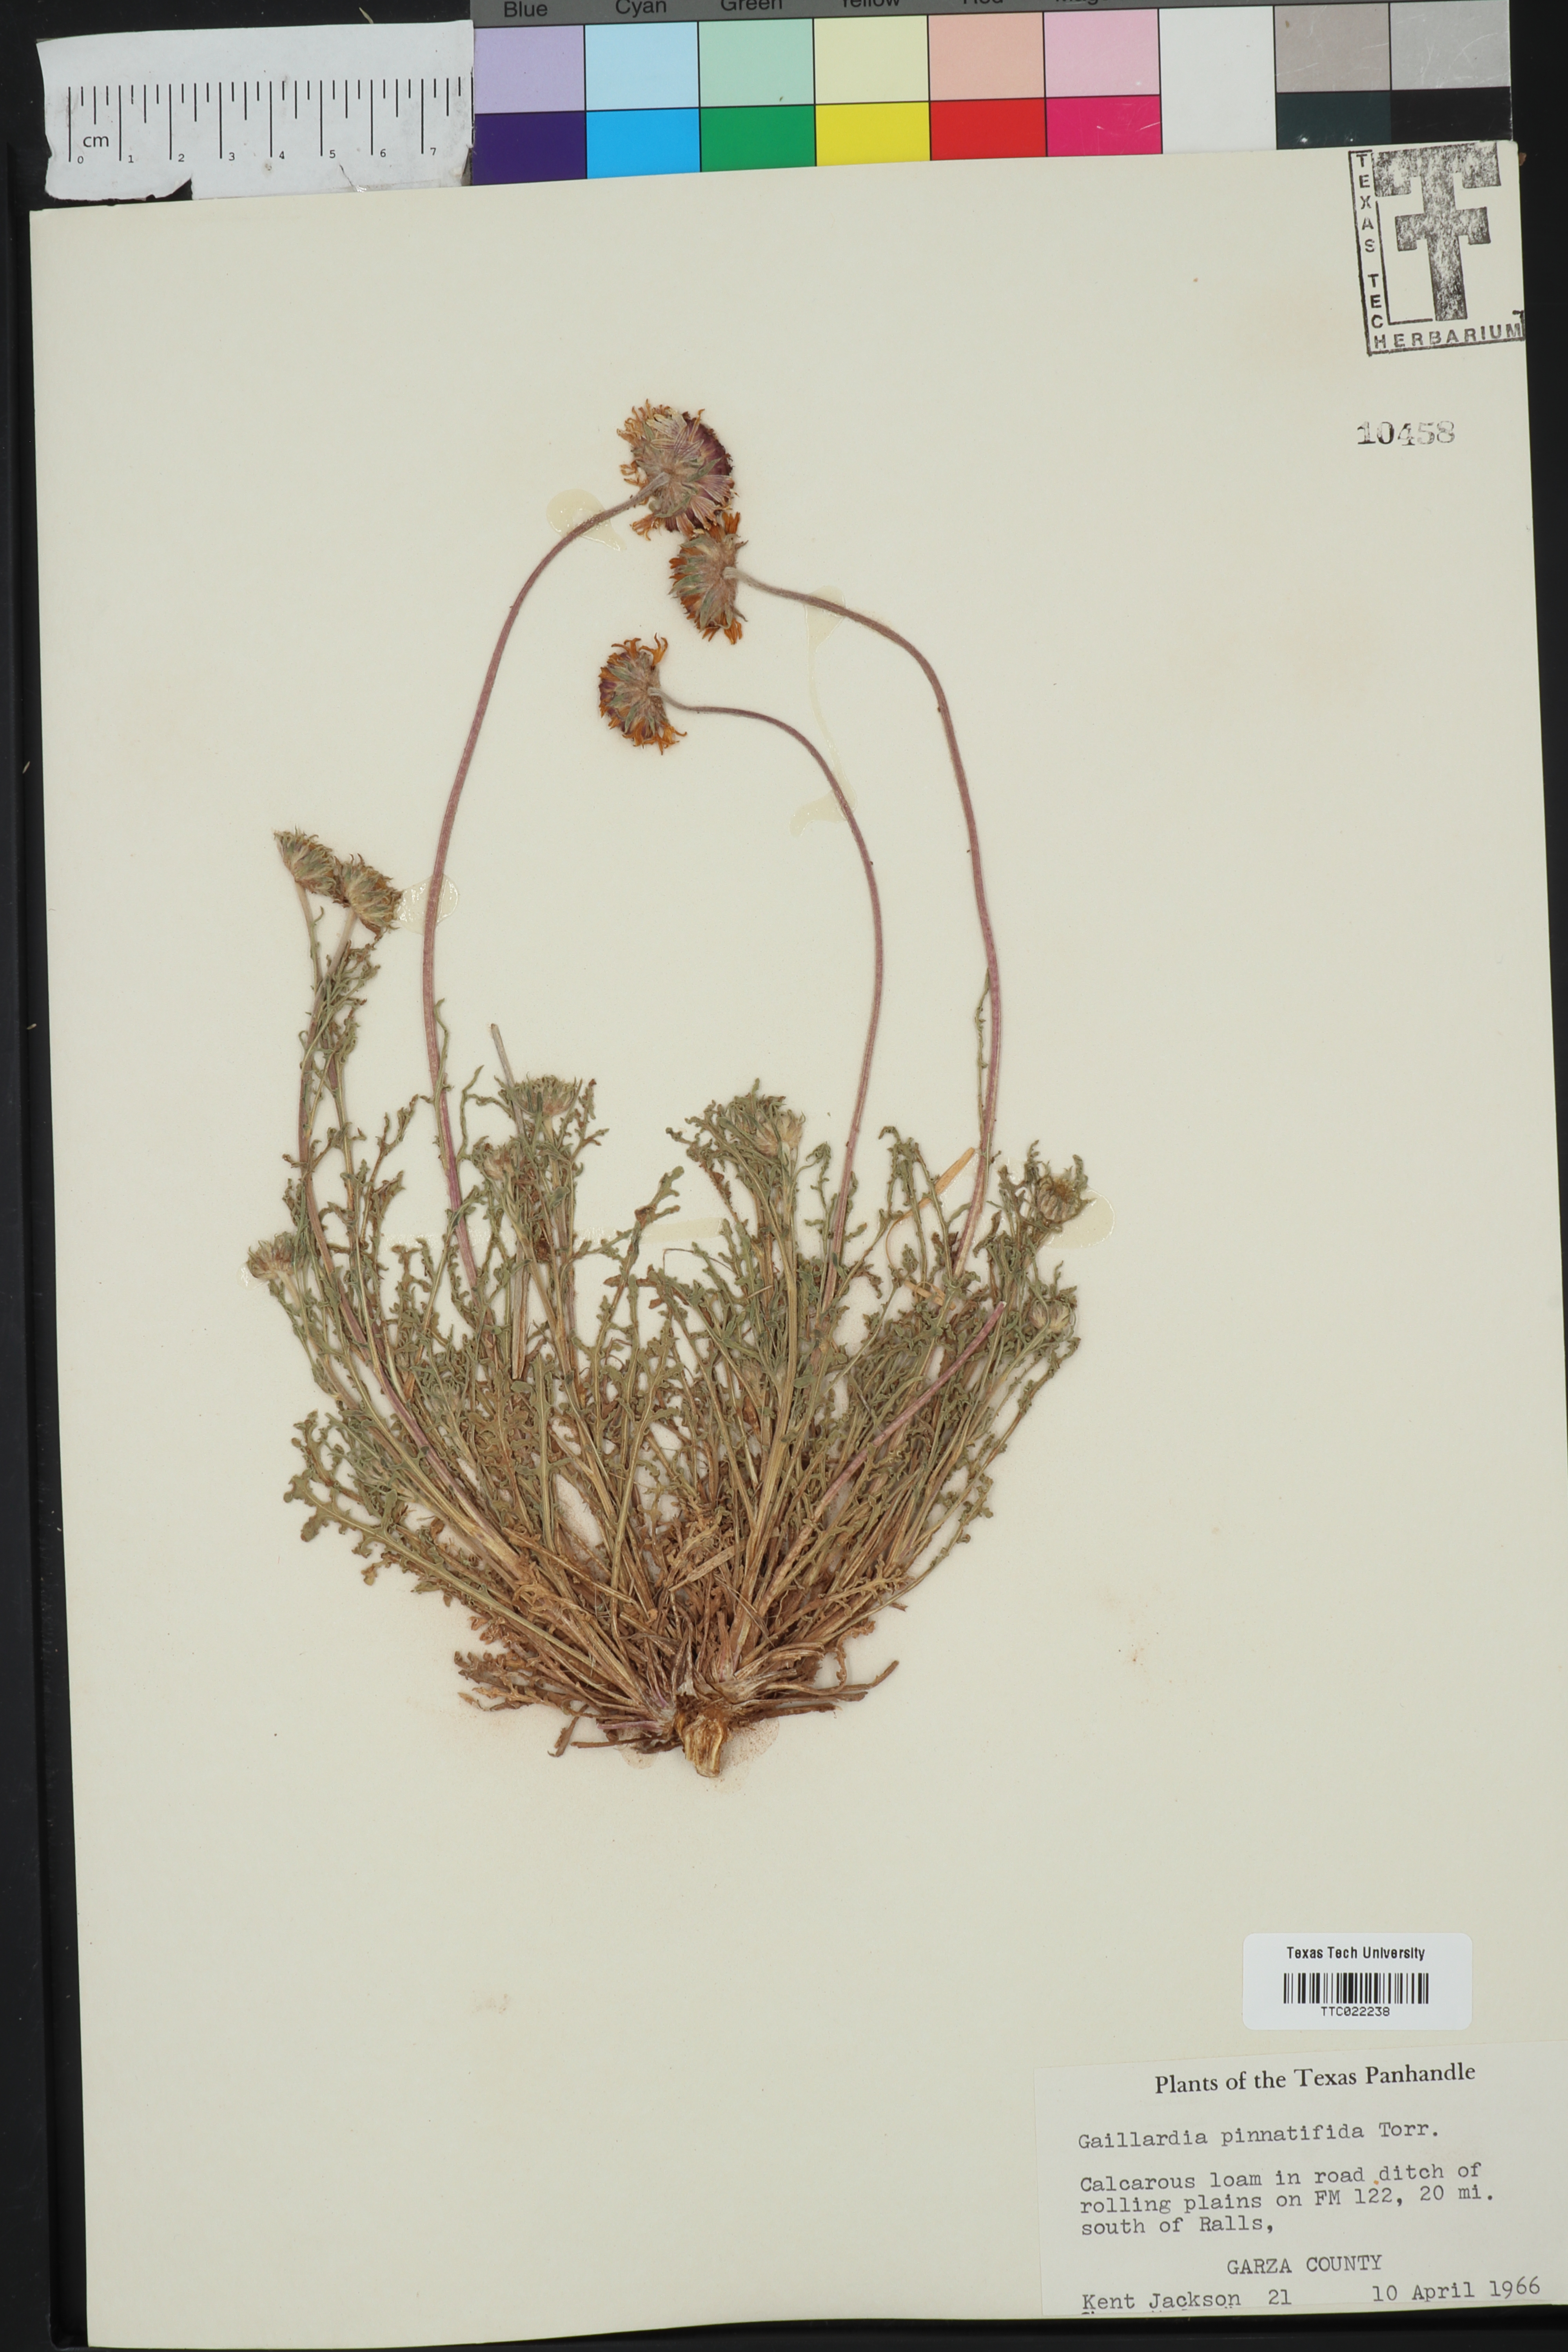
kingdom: Plantae
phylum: Tracheophyta
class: Magnoliopsida
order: Asterales
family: Asteraceae
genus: Gaillardia
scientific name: Gaillardia pinnatifida
